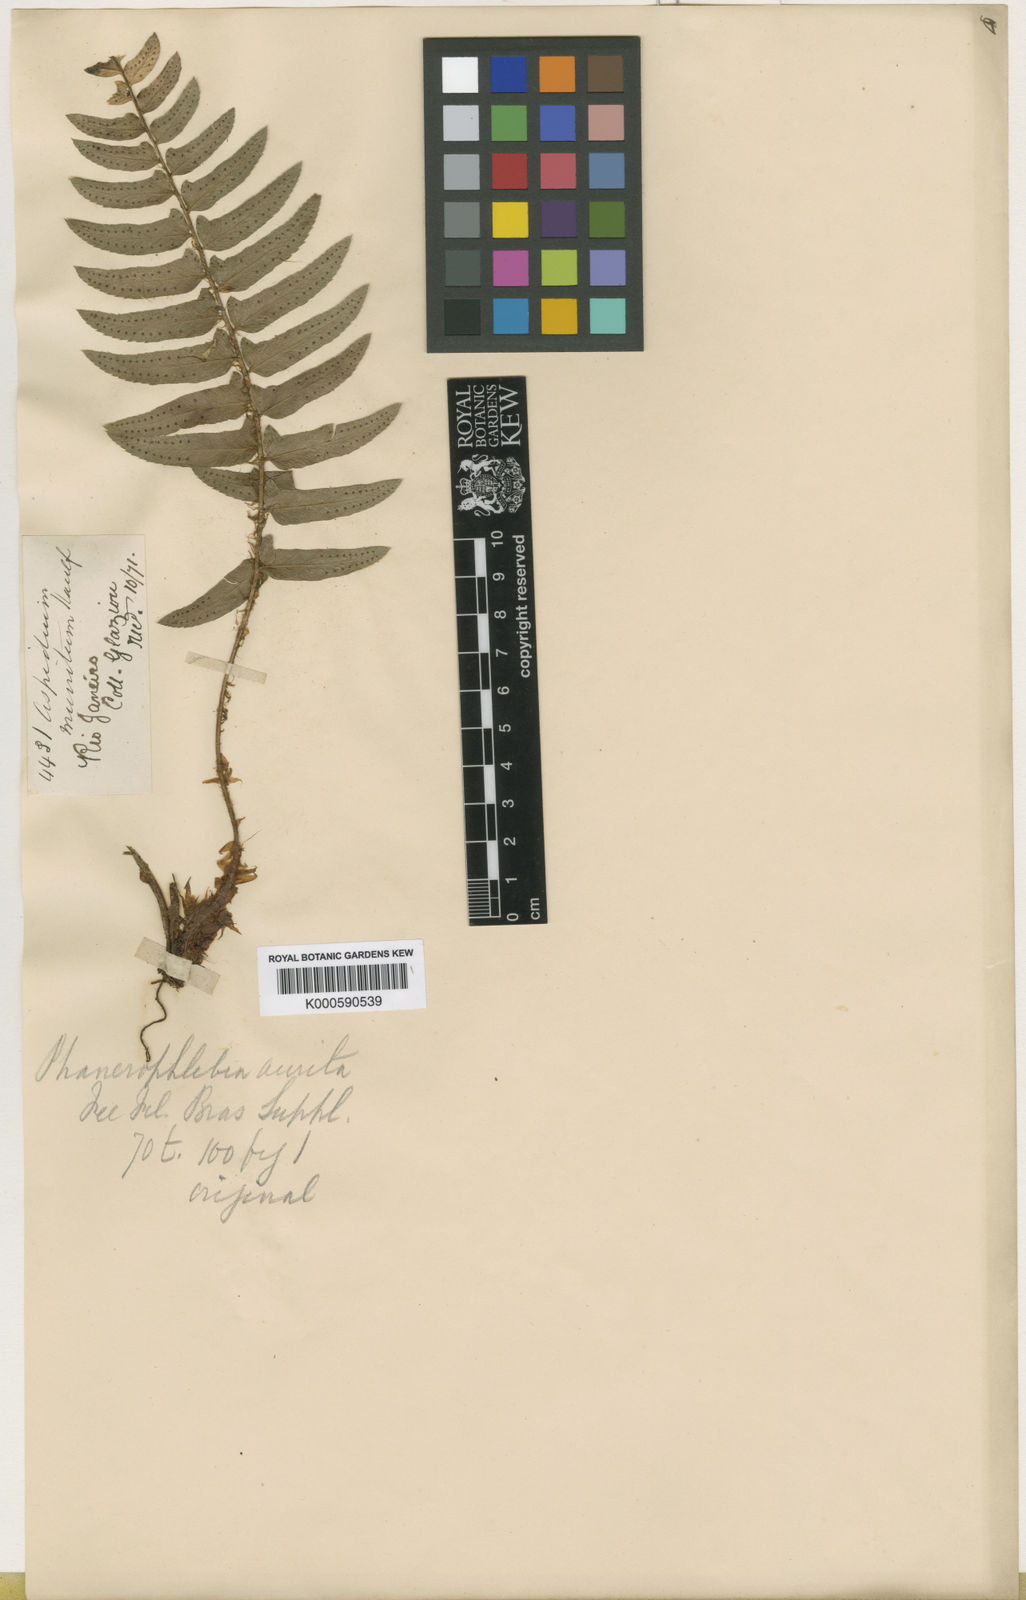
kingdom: Plantae
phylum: Tracheophyta
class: Polypodiopsida
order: Polypodiales
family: Dryopteridaceae
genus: Phanerophlebia
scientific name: Phanerophlebia
